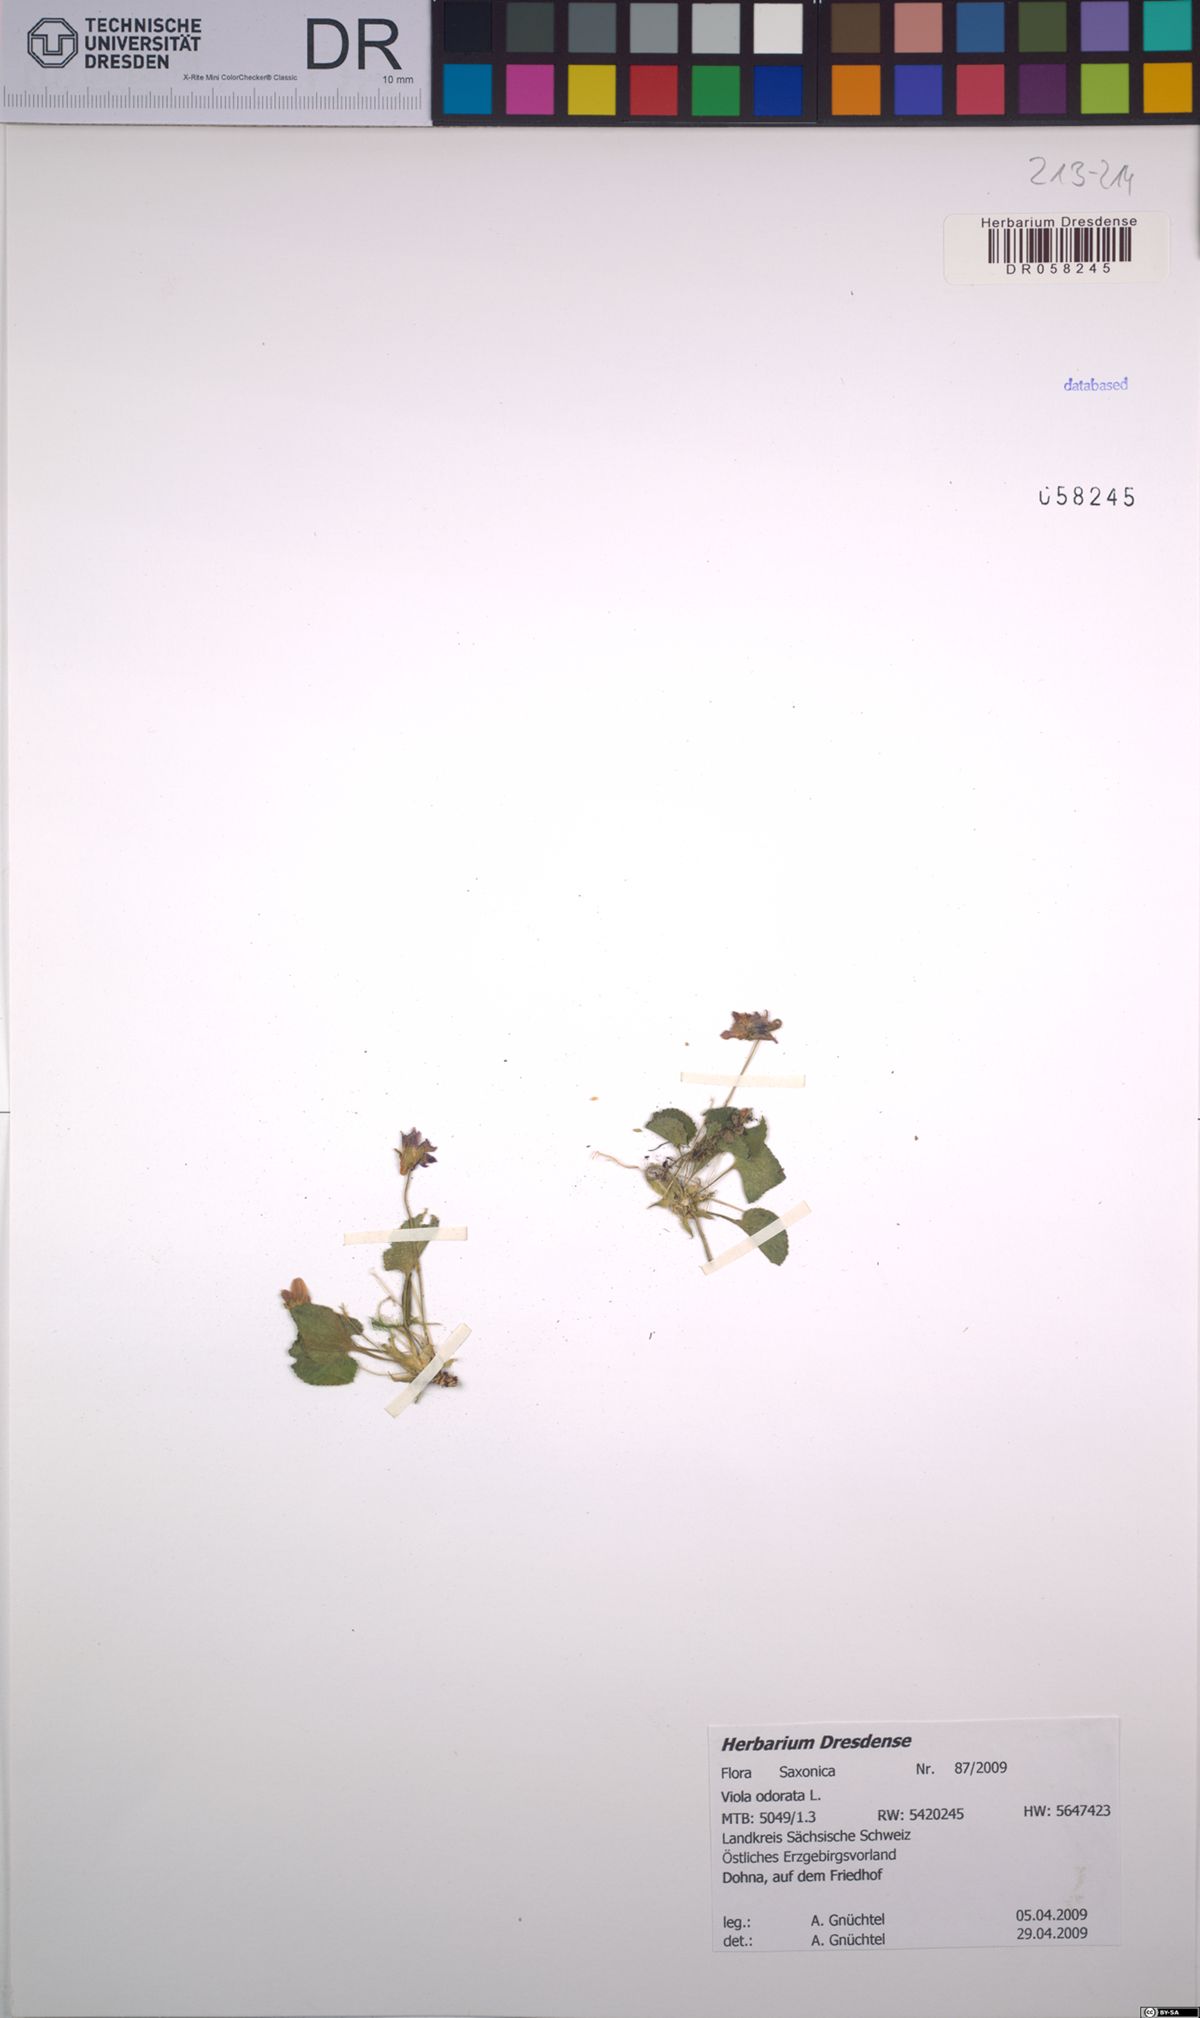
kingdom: Plantae
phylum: Tracheophyta
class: Magnoliopsida
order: Malpighiales
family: Violaceae
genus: Viola
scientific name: Viola odorata
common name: Sweet violet
